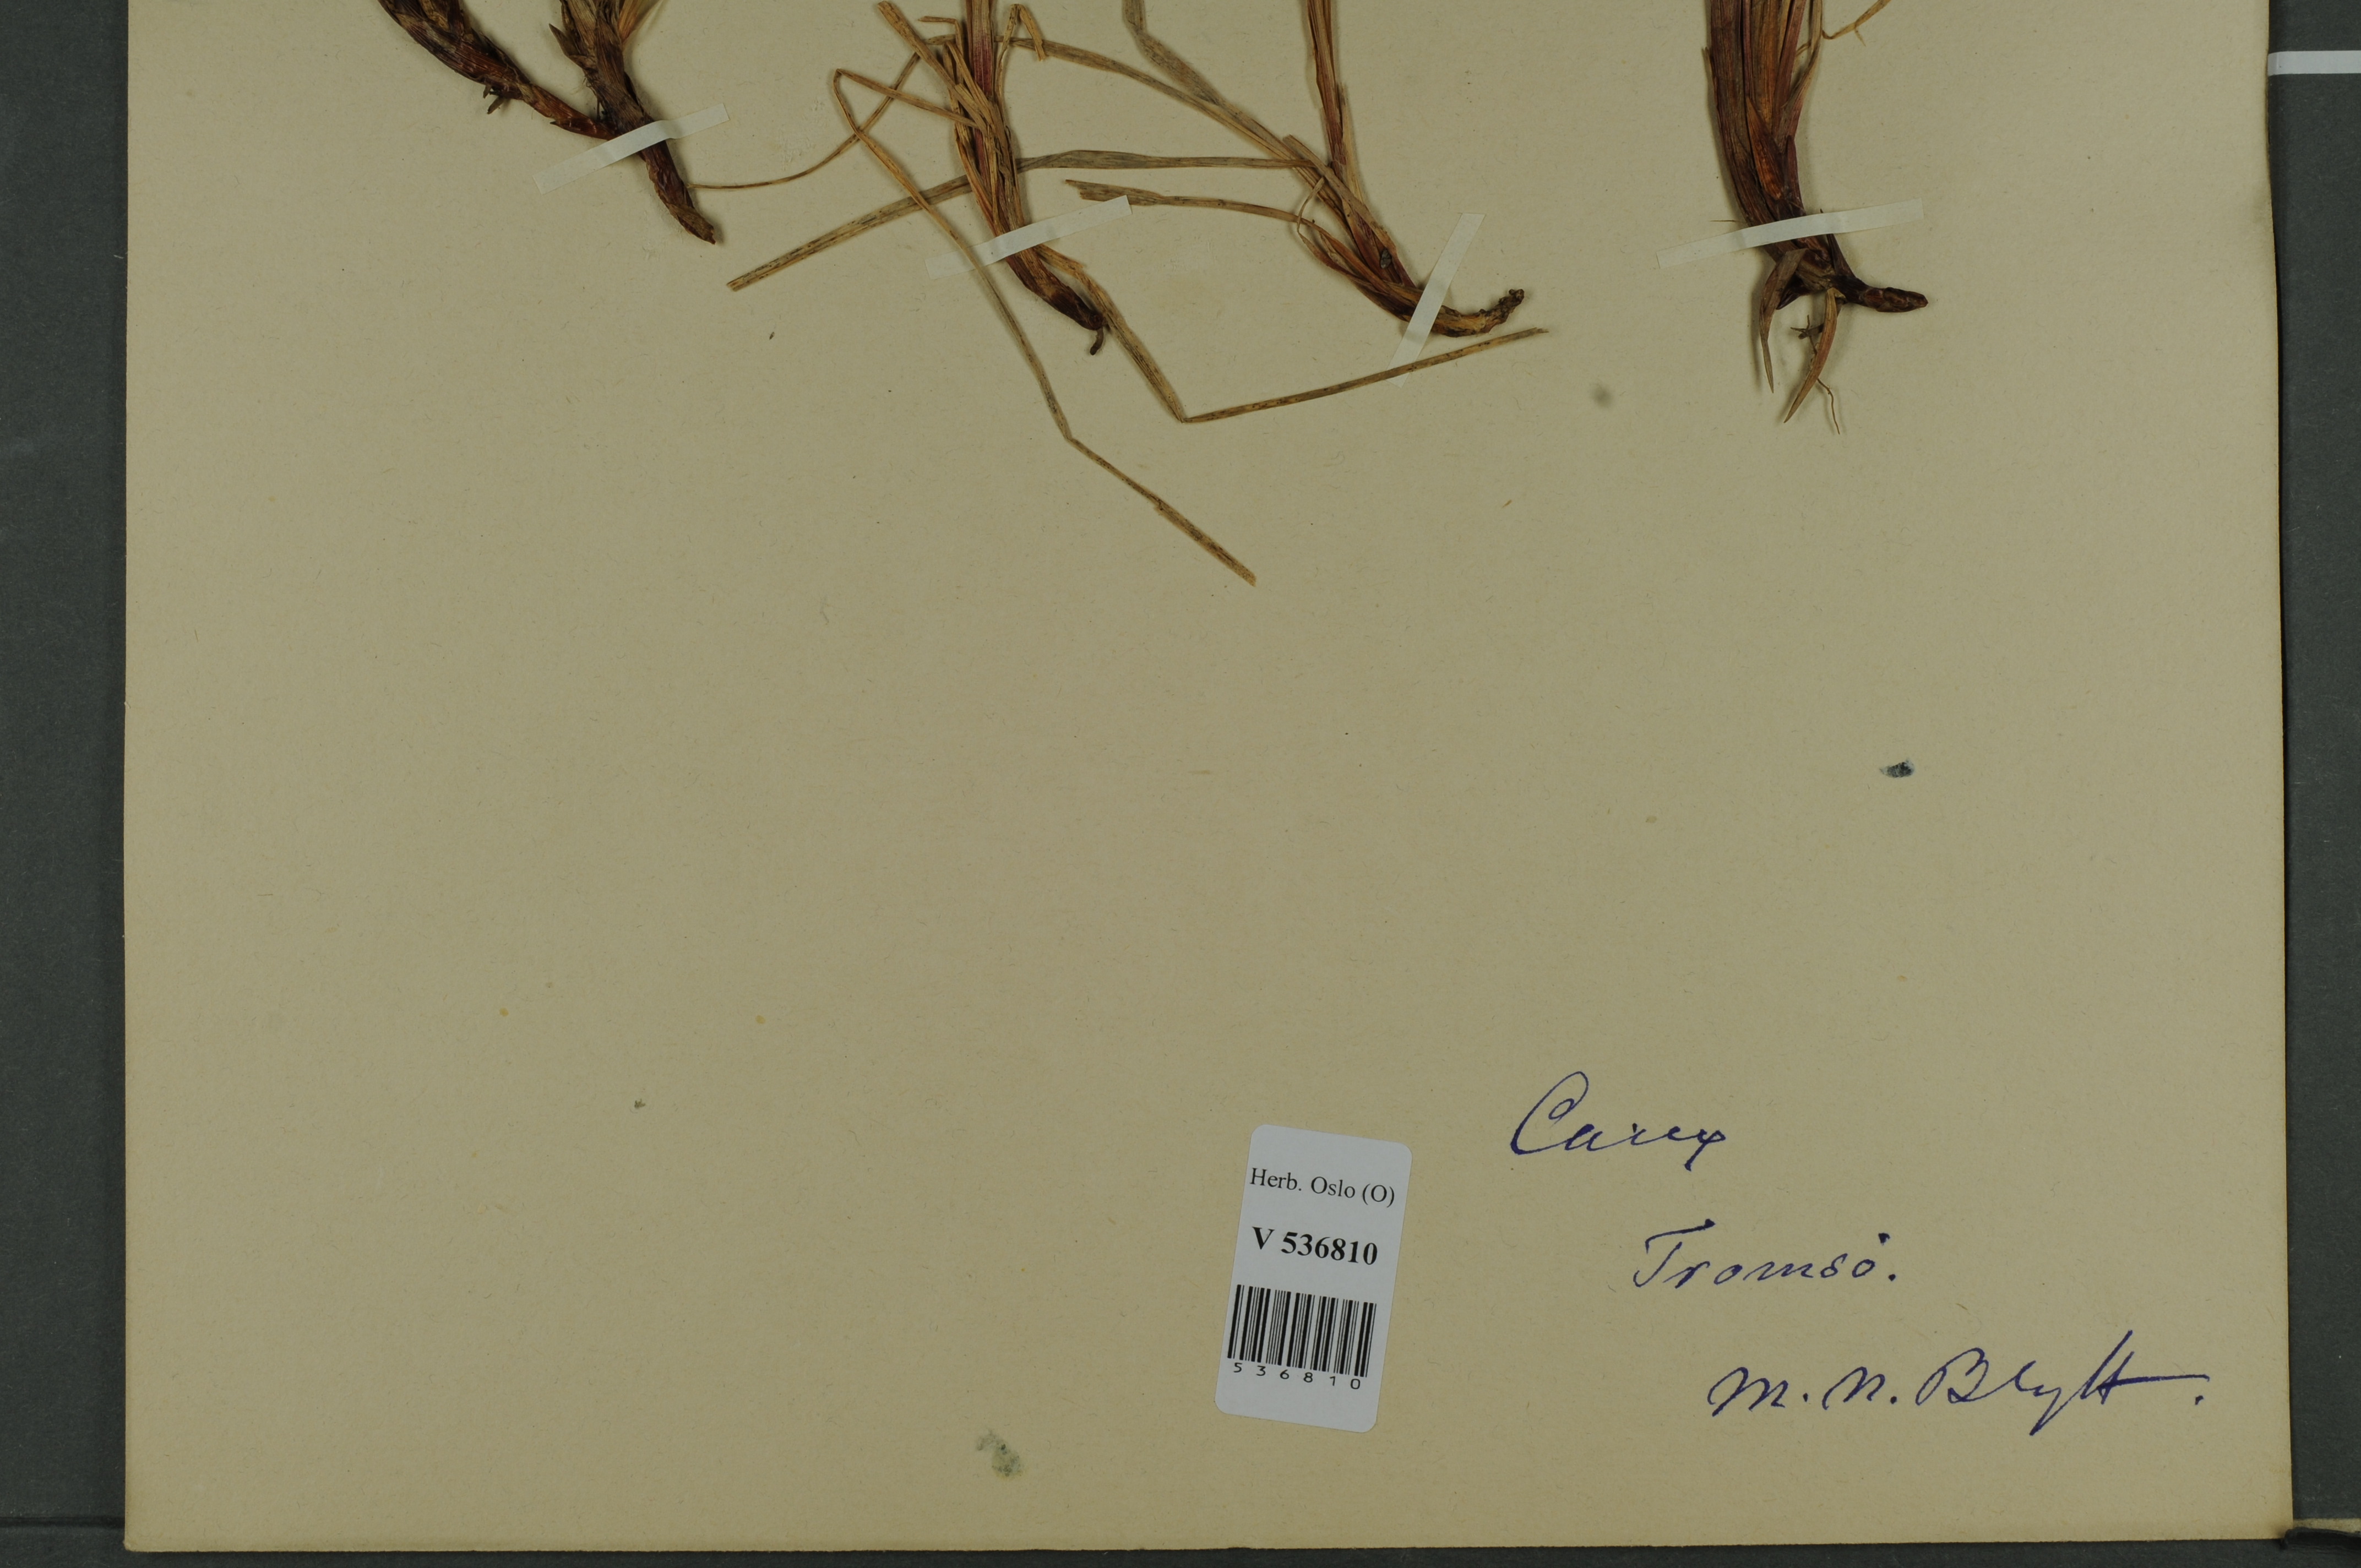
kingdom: Plantae
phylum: Tracheophyta
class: Liliopsida
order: Poales
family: Cyperaceae
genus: Carex
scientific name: Carex bigelowii
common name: Stiff sedge
